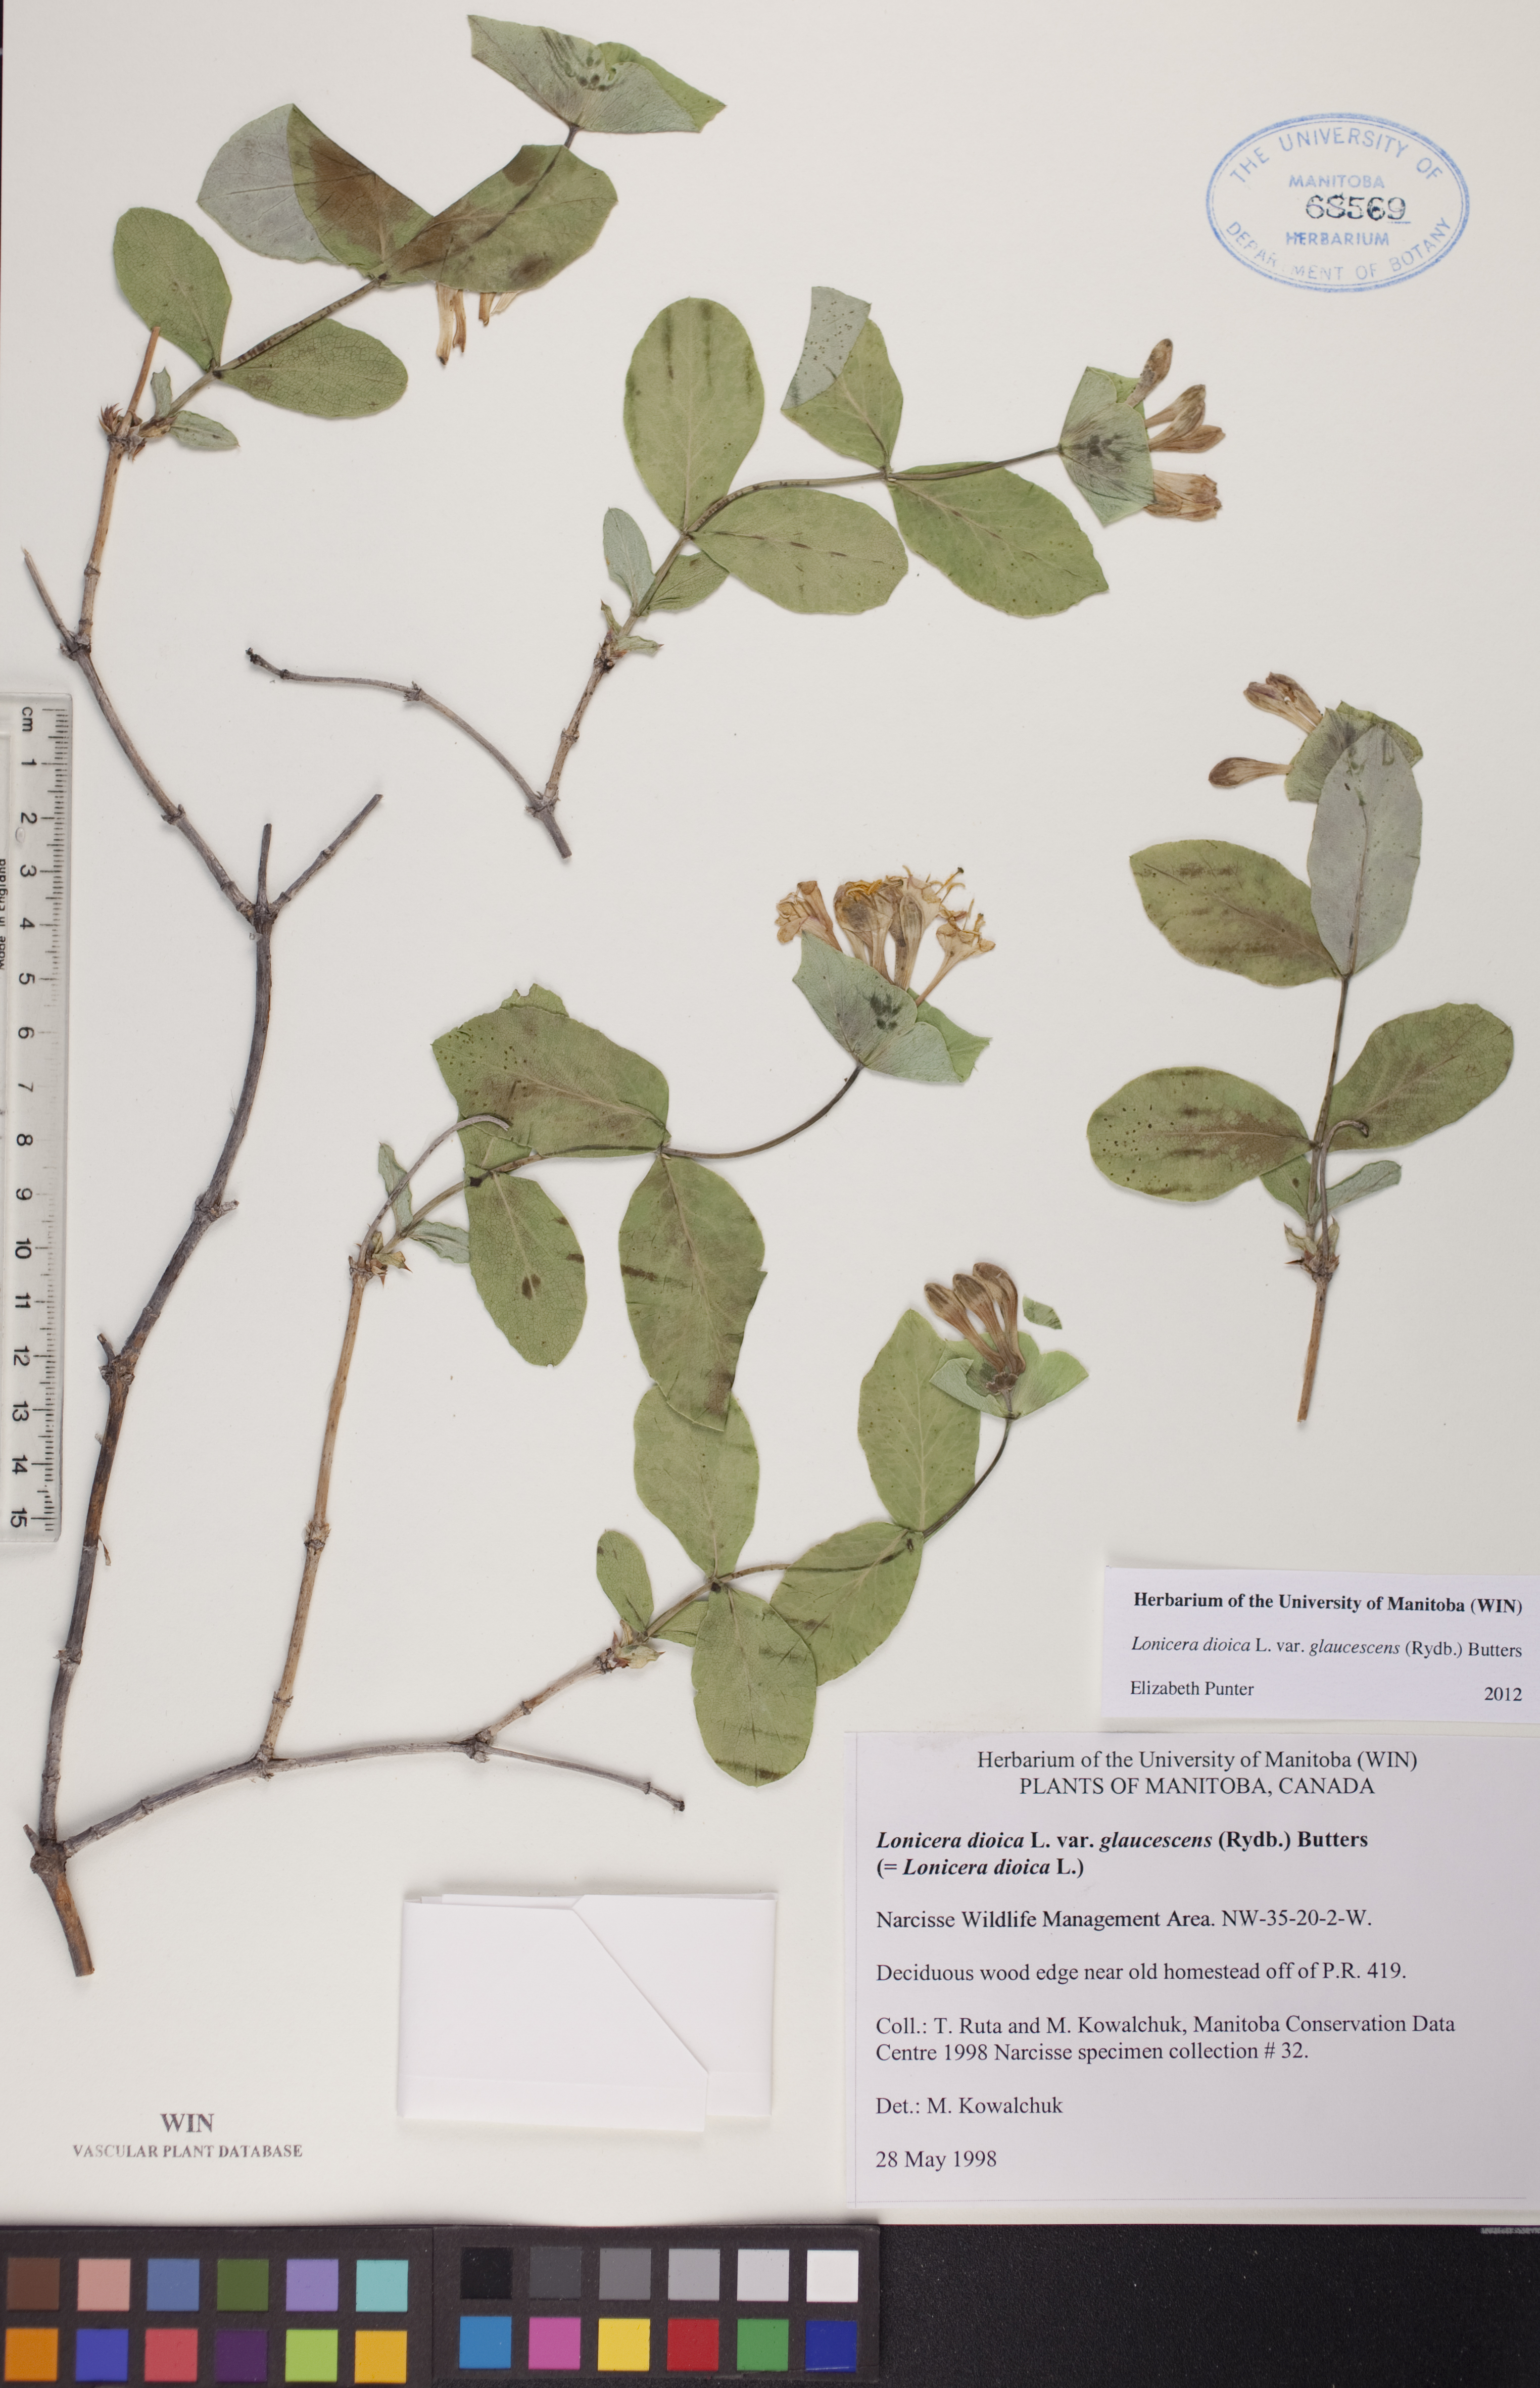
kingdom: Plantae
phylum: Tracheophyta
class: Magnoliopsida
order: Dipsacales
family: Caprifoliaceae
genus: Lonicera
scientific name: Lonicera dioica
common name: Limber honeysuckle
